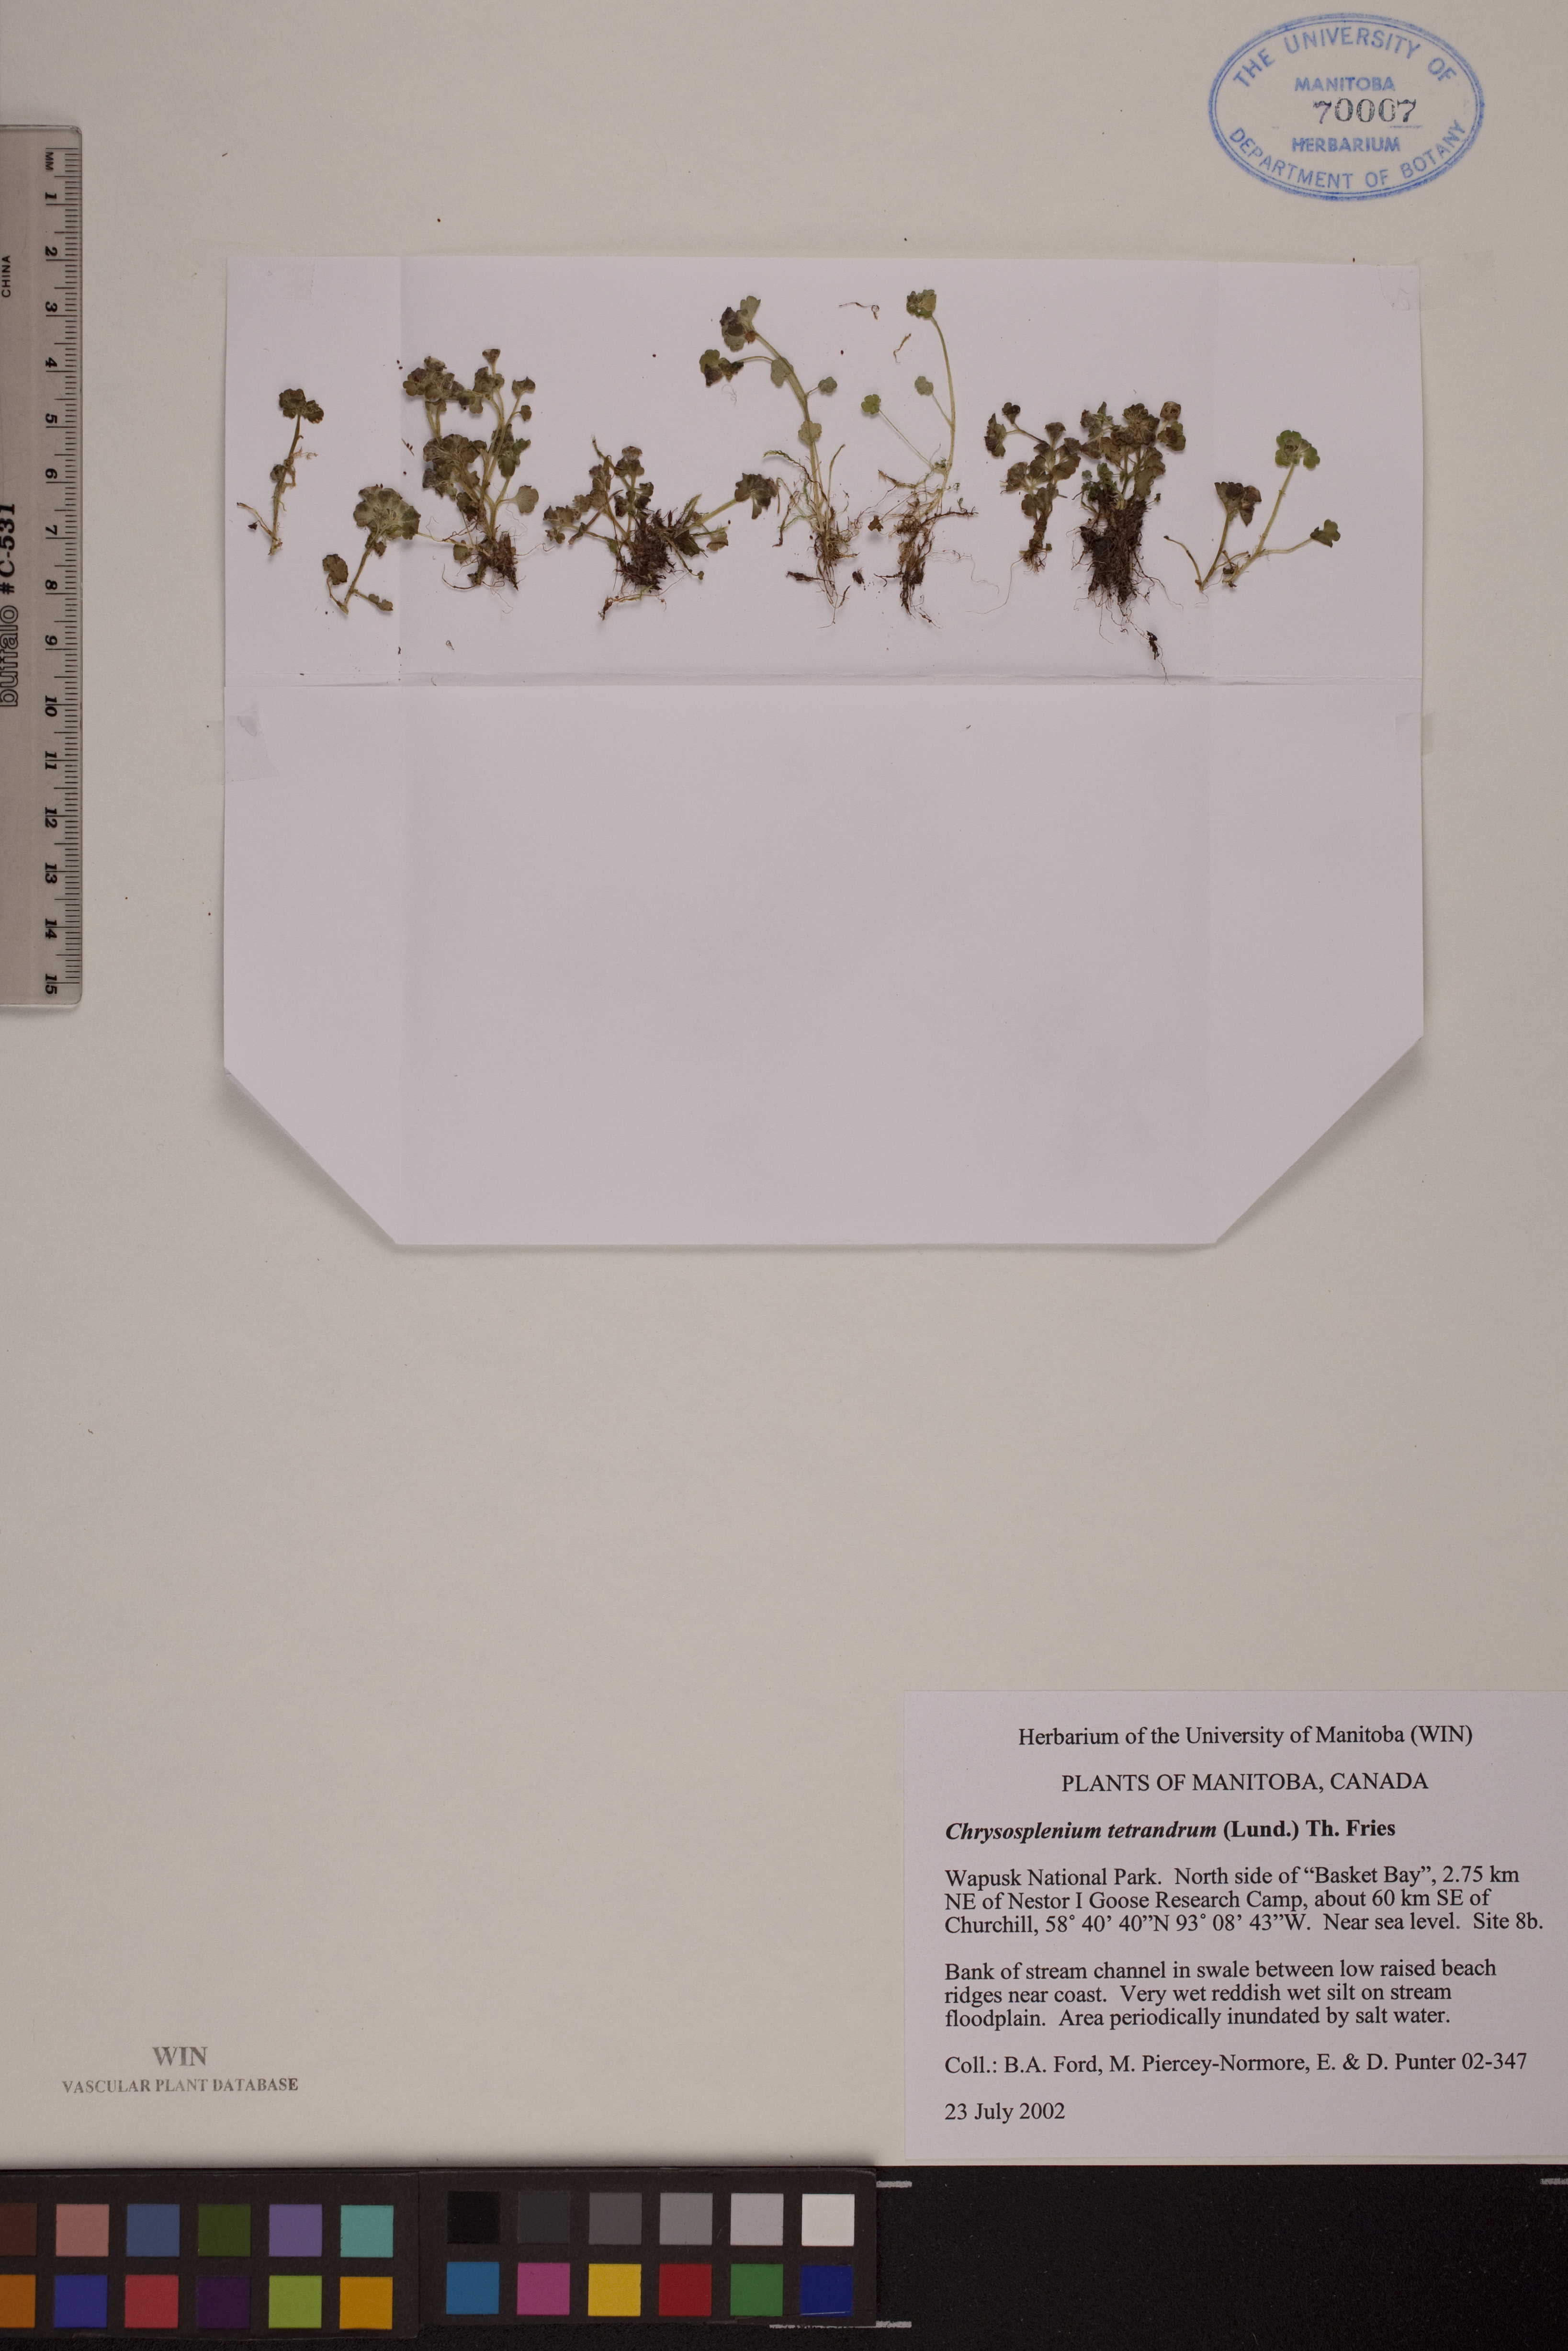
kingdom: Plantae
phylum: Tracheophyta
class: Magnoliopsida
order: Saxifragales
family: Saxifragaceae
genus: Chrysosplenium
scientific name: Chrysosplenium tetrandrum
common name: Green saxifrage
